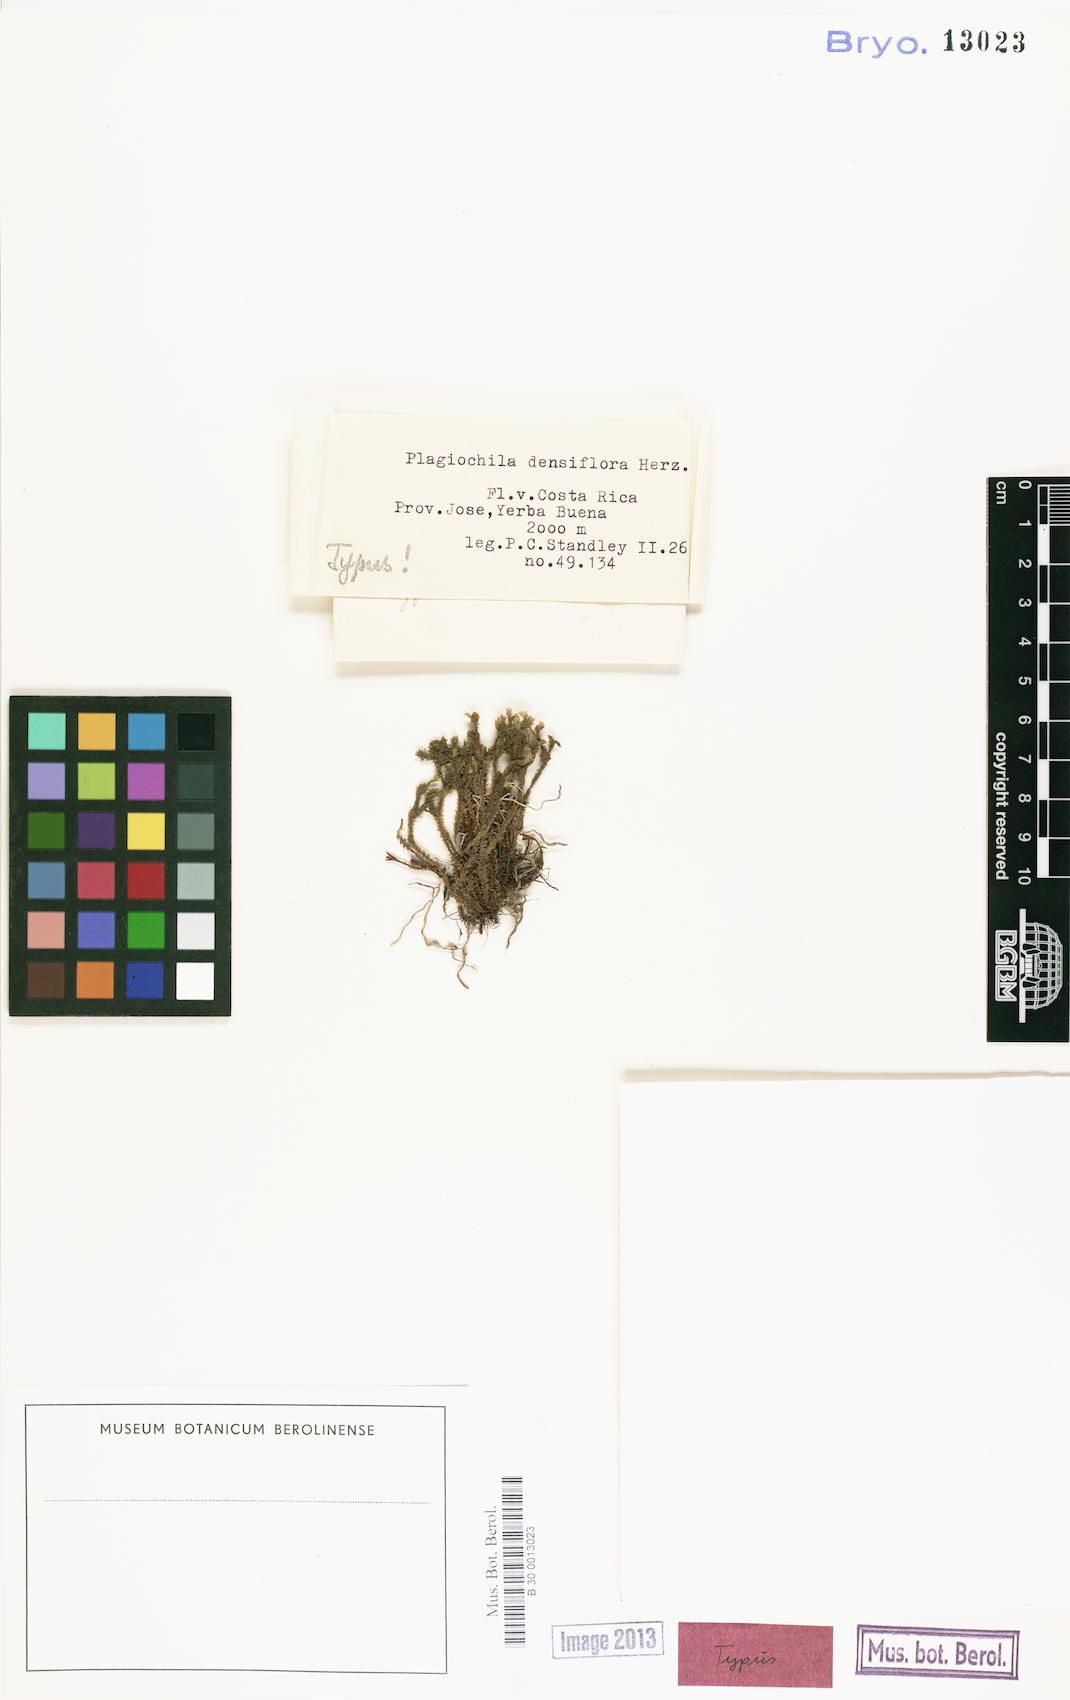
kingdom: Plantae
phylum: Marchantiophyta
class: Jungermanniopsida
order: Jungermanniales
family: Plagiochilaceae
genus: Plagiochila
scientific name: Plagiochila densiflora
